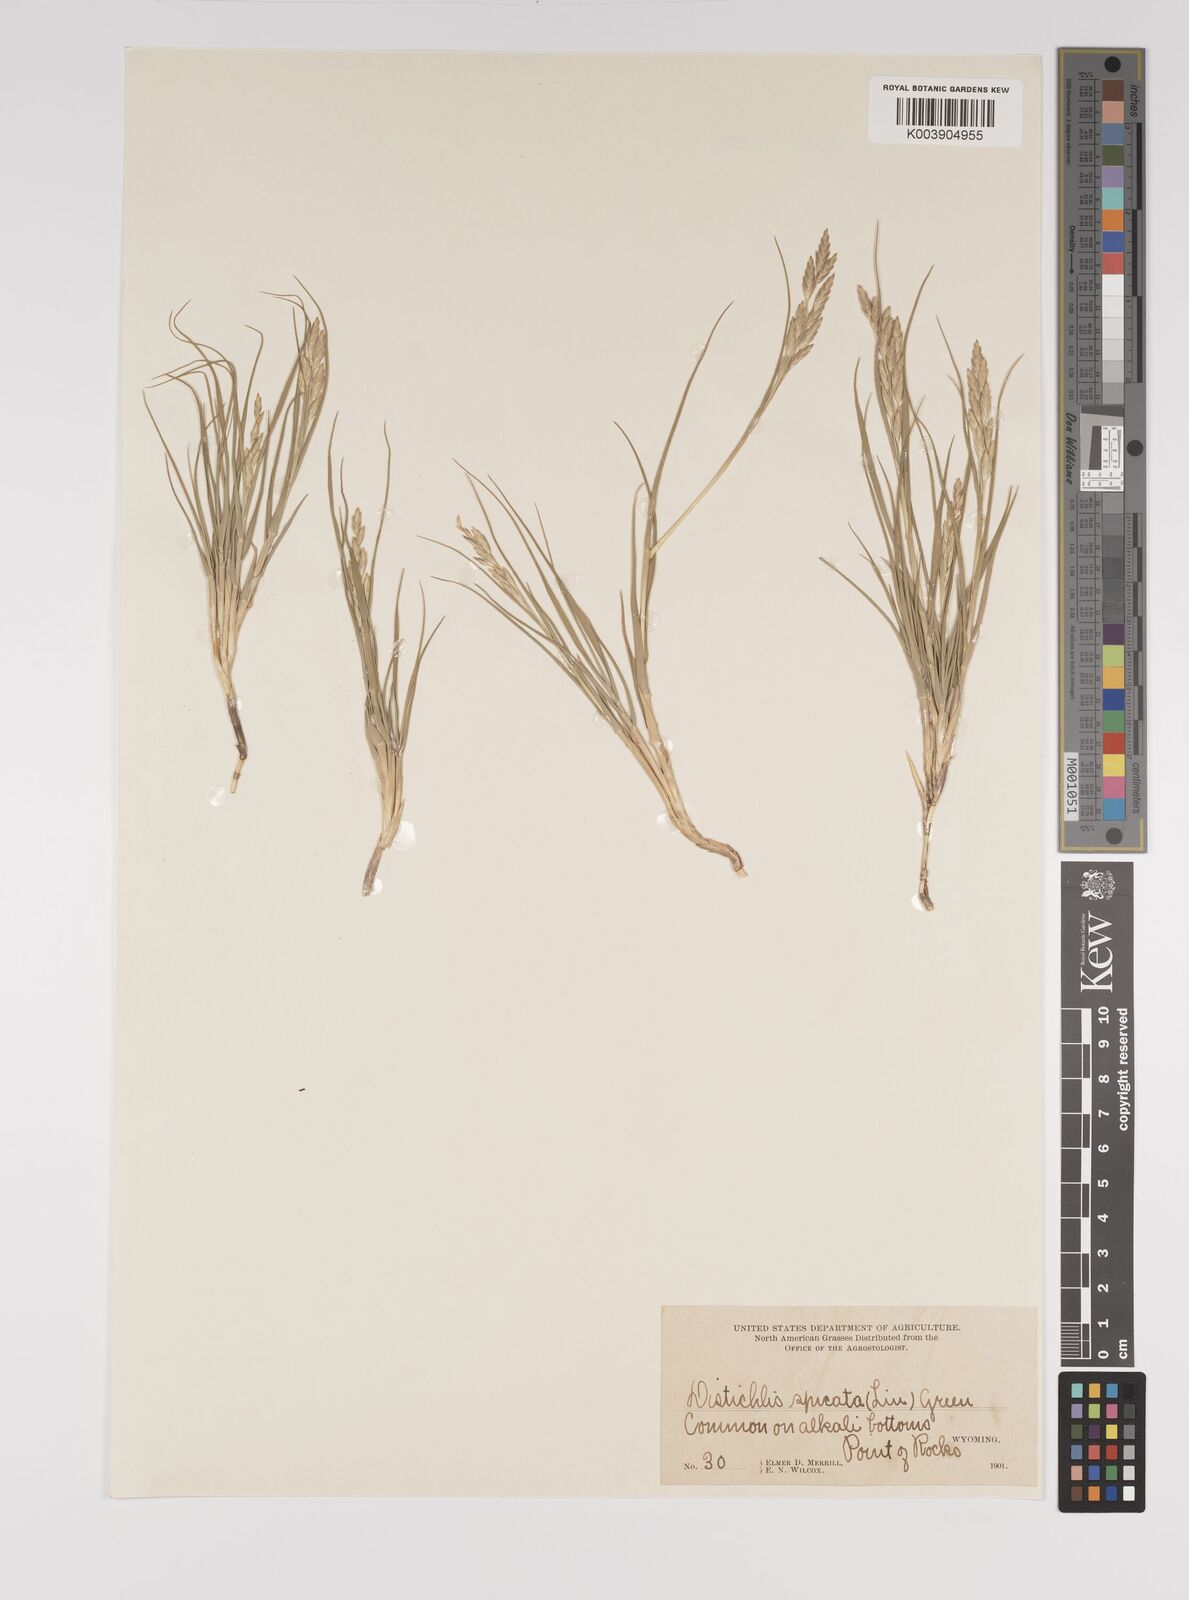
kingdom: Plantae
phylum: Tracheophyta
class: Liliopsida
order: Poales
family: Poaceae
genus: Distichlis
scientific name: Distichlis spicata
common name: Saltgrass
